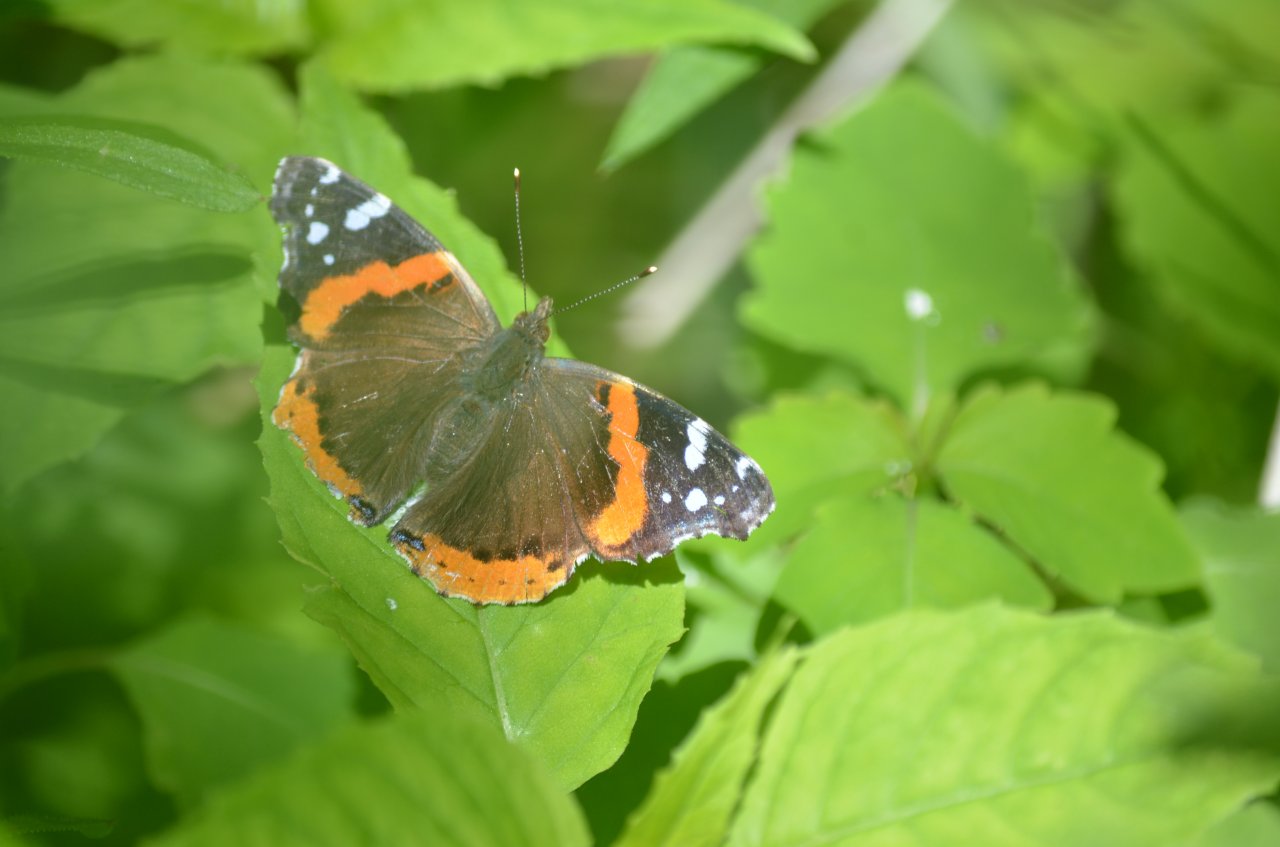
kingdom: Animalia
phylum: Arthropoda
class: Insecta
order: Lepidoptera
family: Nymphalidae
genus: Vanessa
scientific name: Vanessa atalanta
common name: Red Admiral
